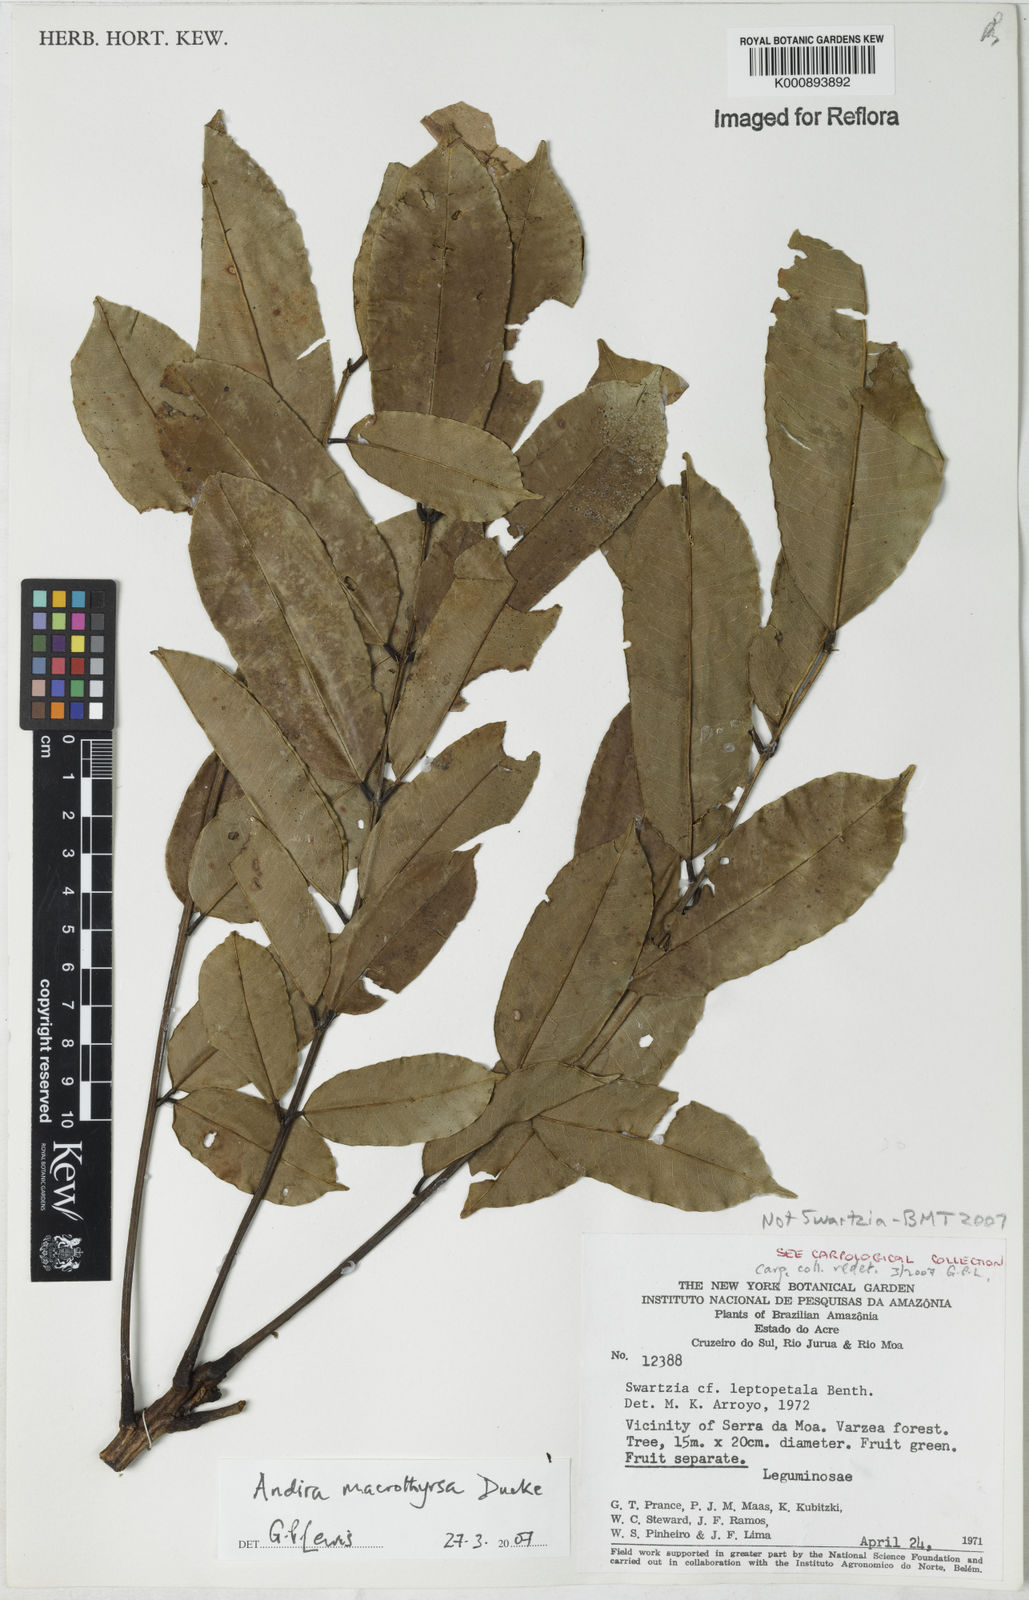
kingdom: Plantae
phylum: Tracheophyta
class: Magnoliopsida
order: Fabales
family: Fabaceae
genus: Andira
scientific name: Andira macrothyrsa
